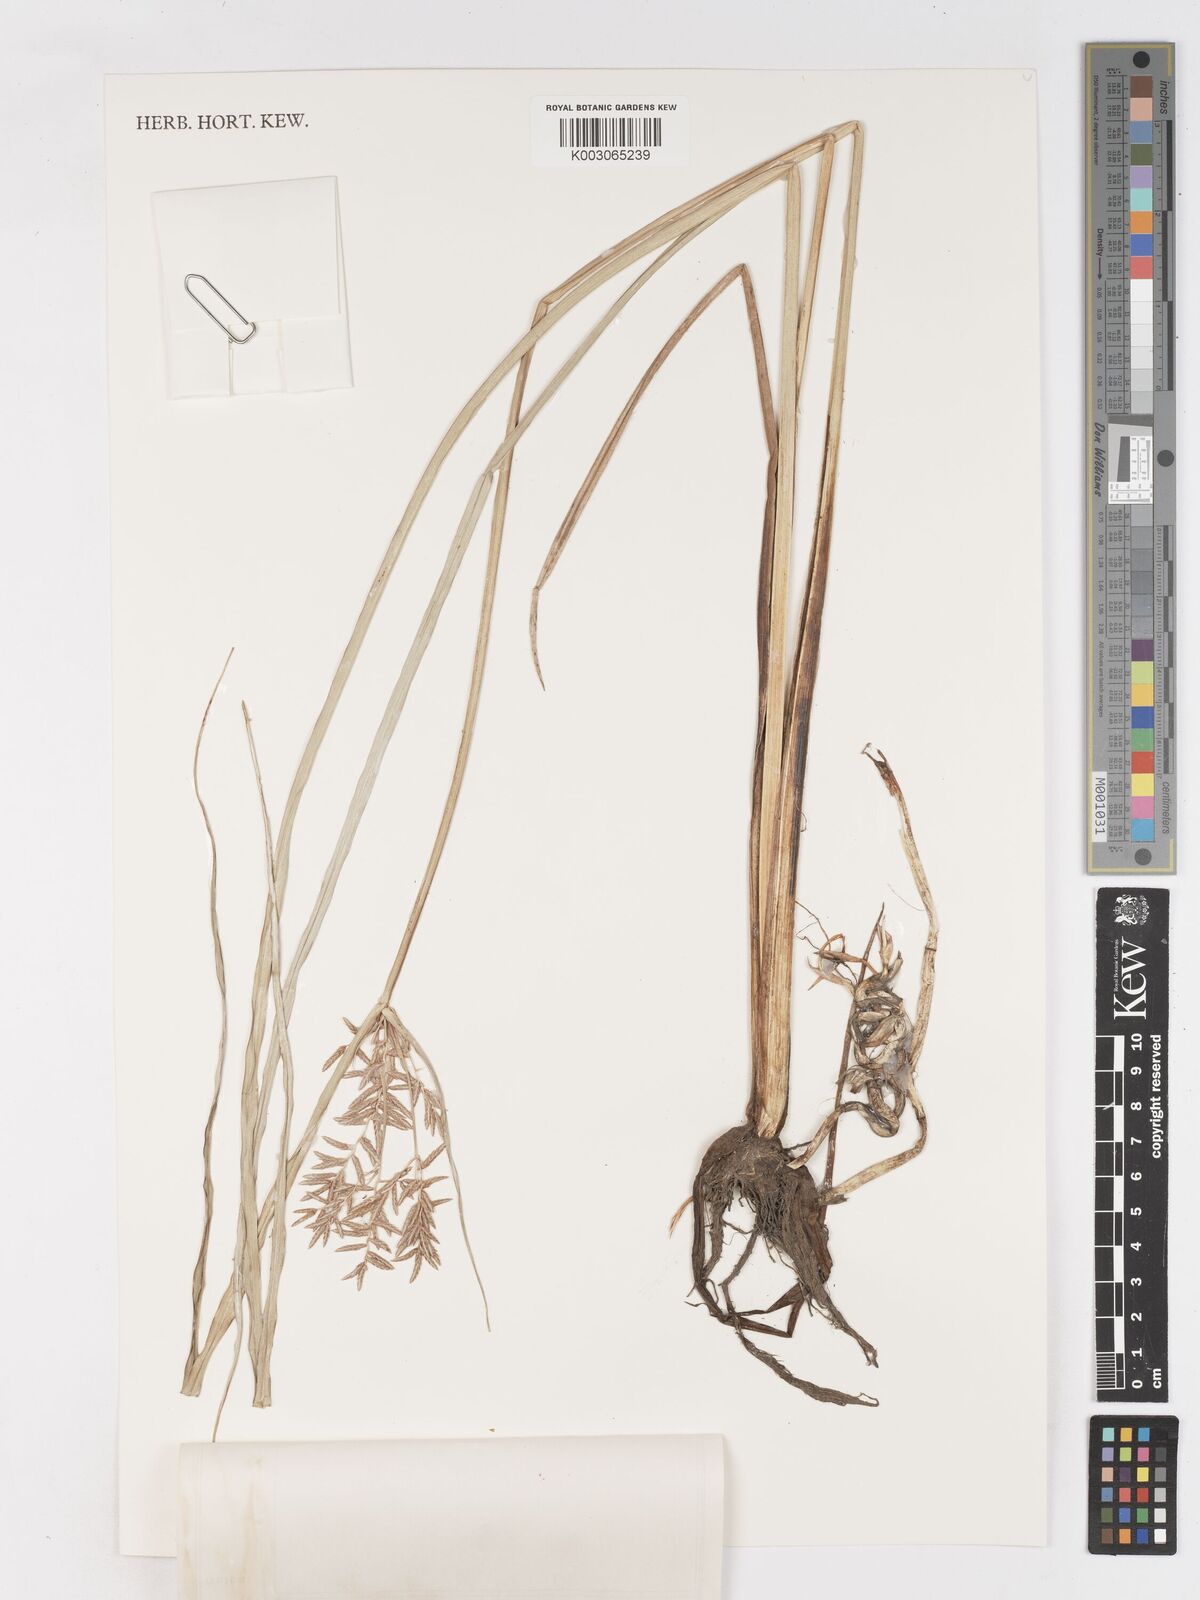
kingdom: Plantae
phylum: Tracheophyta
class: Liliopsida
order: Poales
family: Cyperaceae
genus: Cyperus
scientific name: Cyperus serotinus
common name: Tidalmarsh flatsedge
